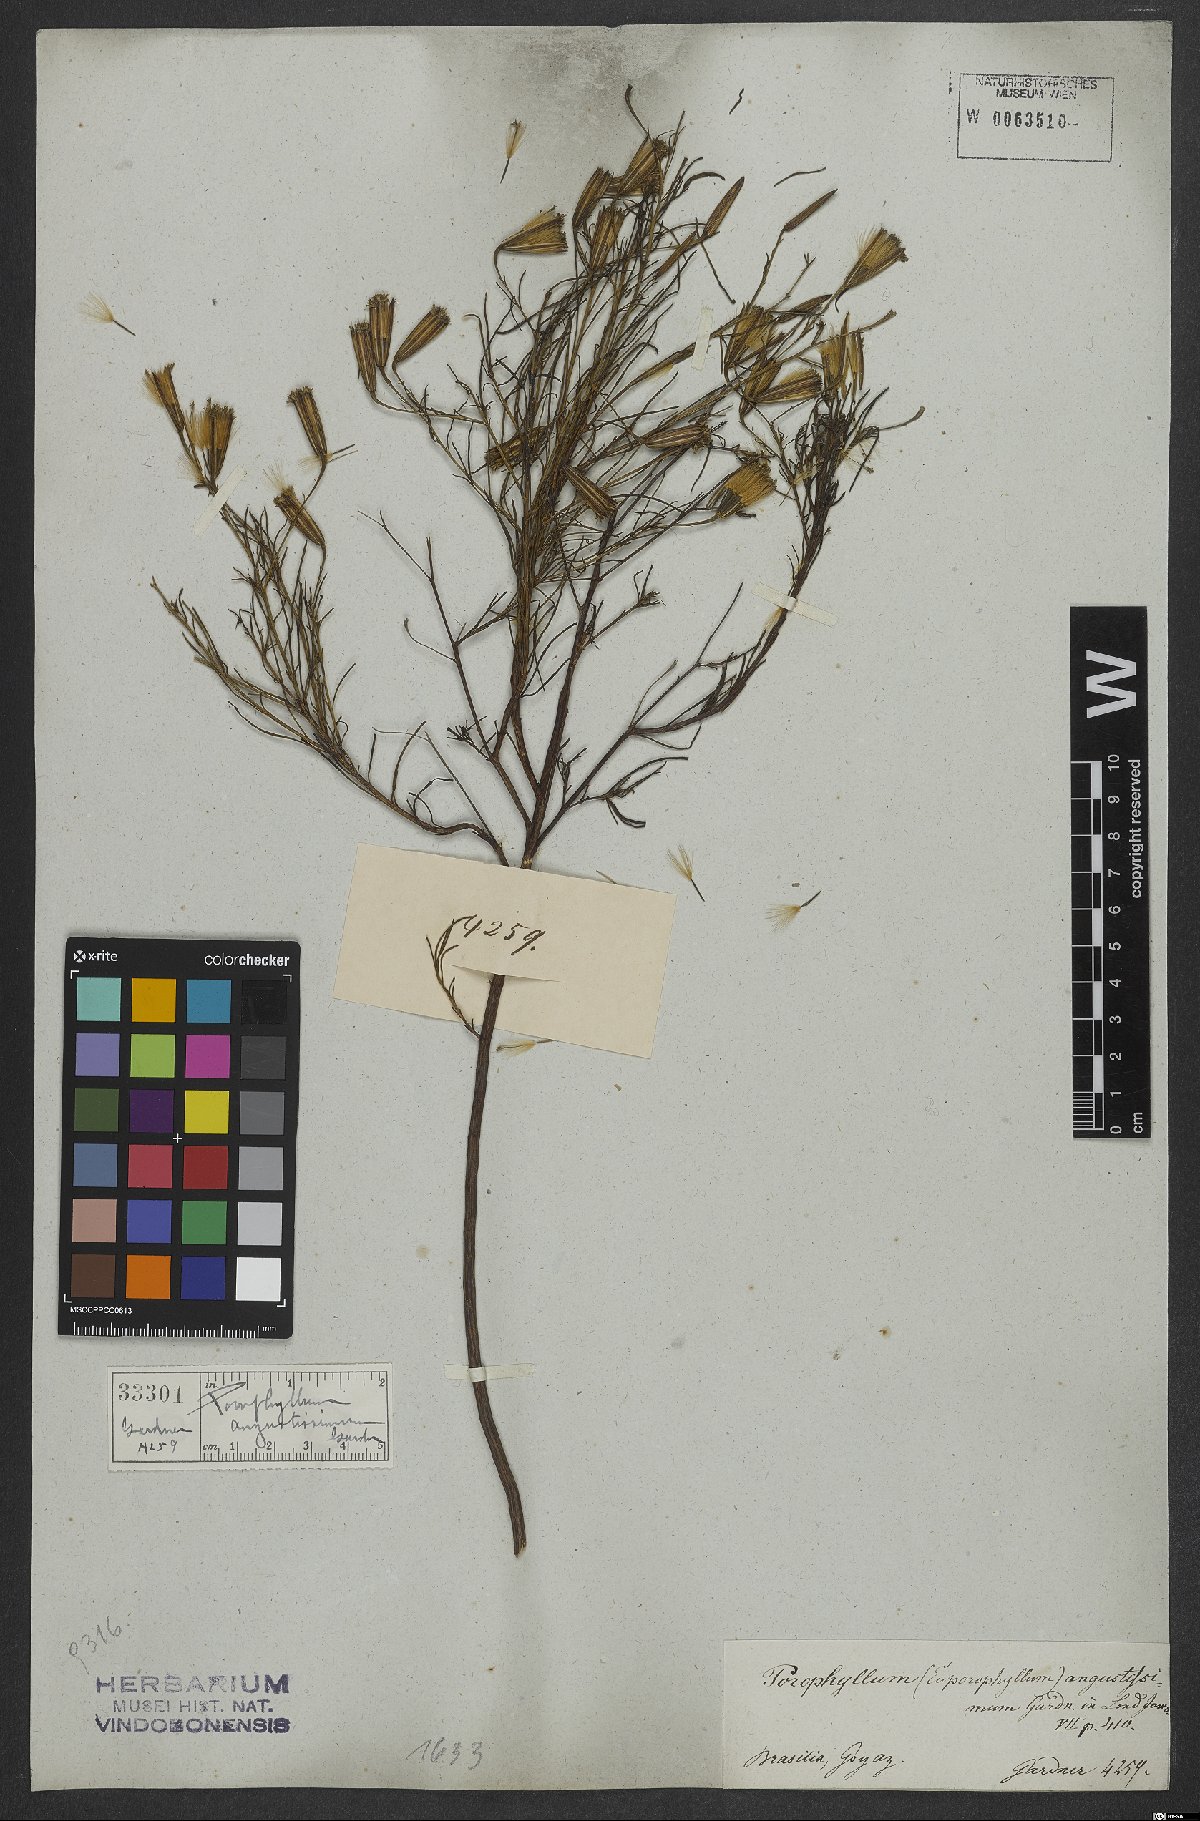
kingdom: Plantae
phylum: Tracheophyta
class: Magnoliopsida
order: Asterales
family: Asteraceae
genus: Porophyllum
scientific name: Porophyllum angustissimum
